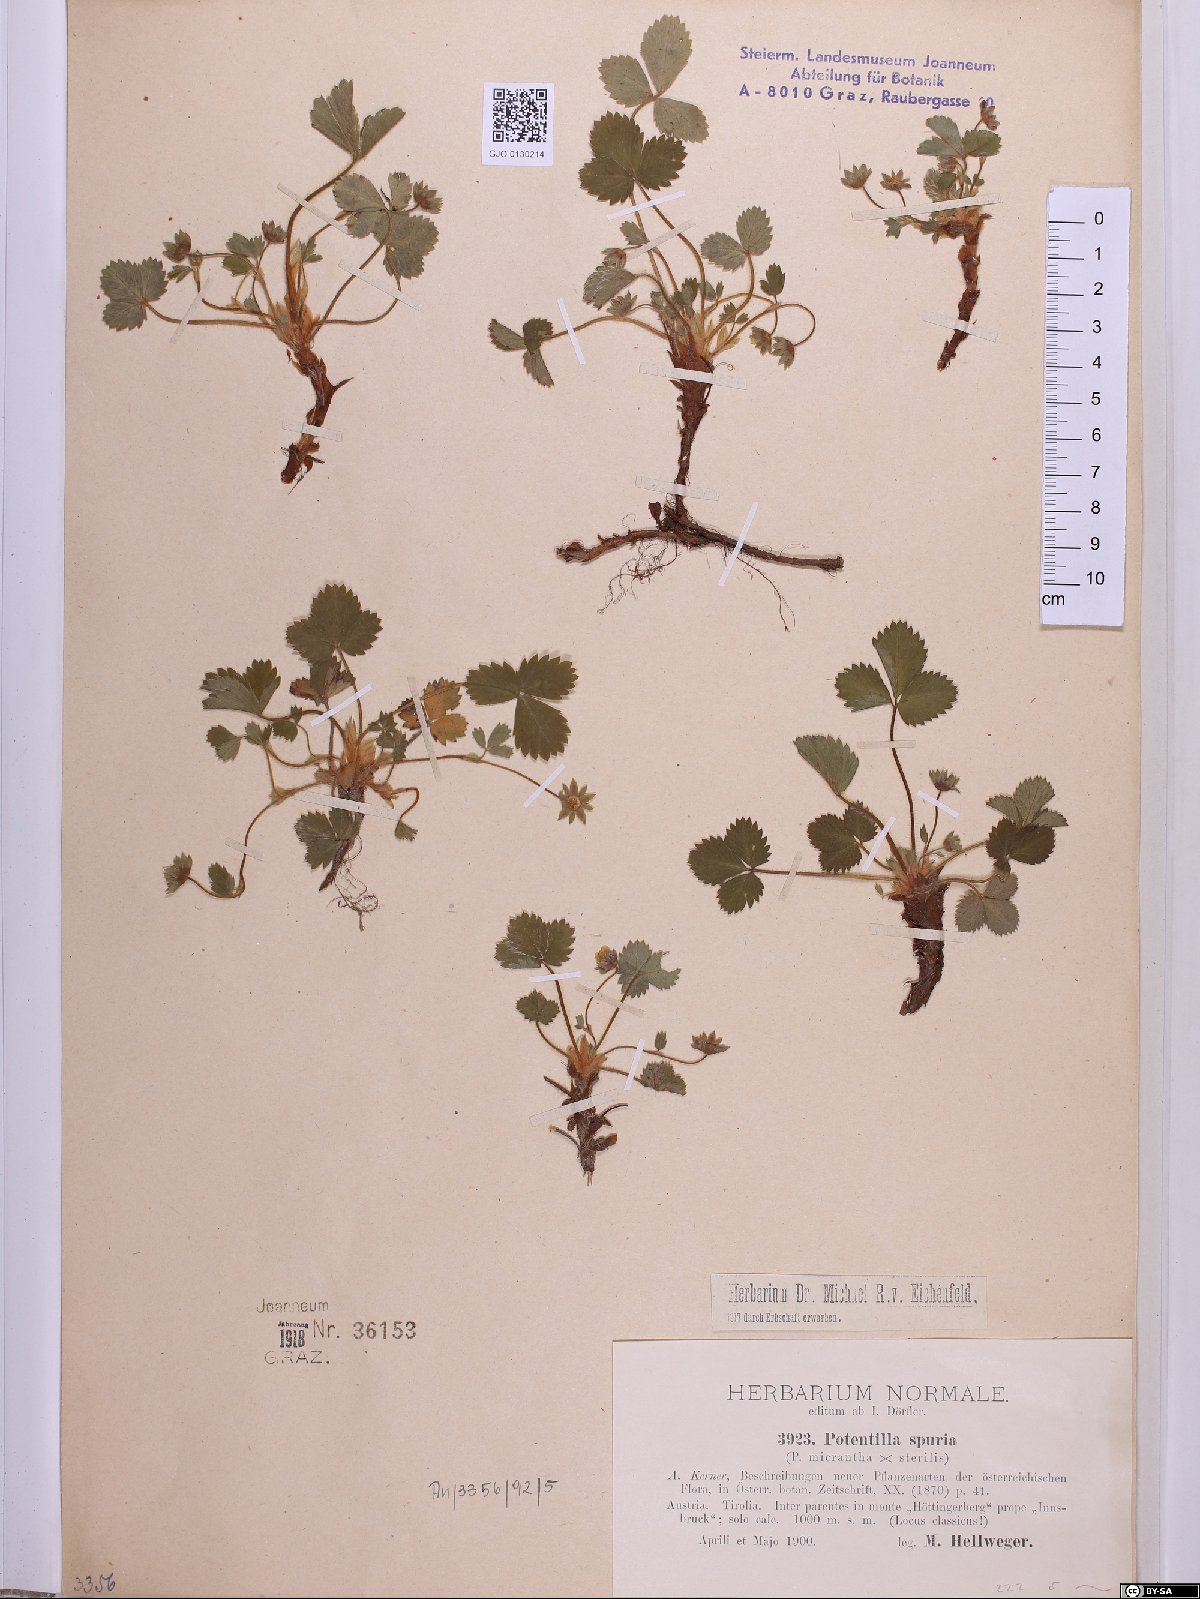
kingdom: Plantae
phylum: Tracheophyta
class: Magnoliopsida
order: Rosales
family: Rosaceae
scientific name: Rosaceae
